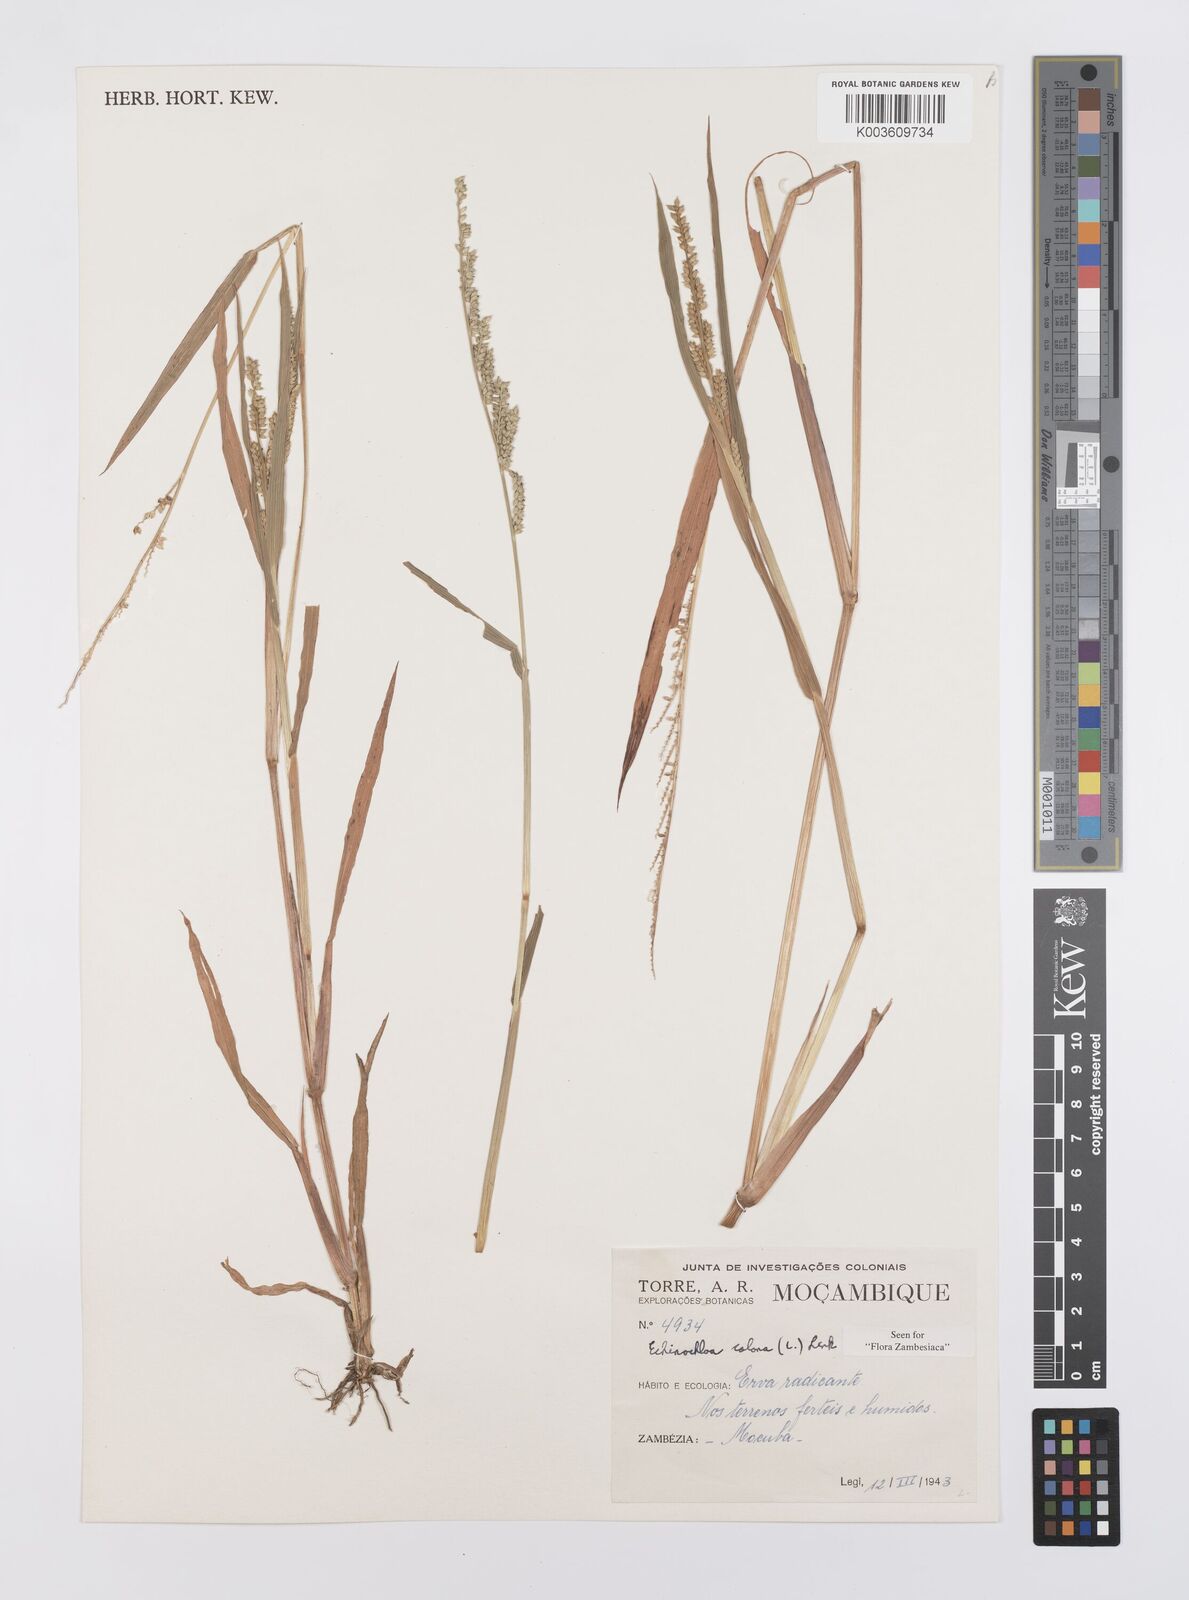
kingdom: Plantae
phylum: Tracheophyta
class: Liliopsida
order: Poales
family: Poaceae
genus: Echinochloa
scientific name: Echinochloa colonum
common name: Jungle rice
